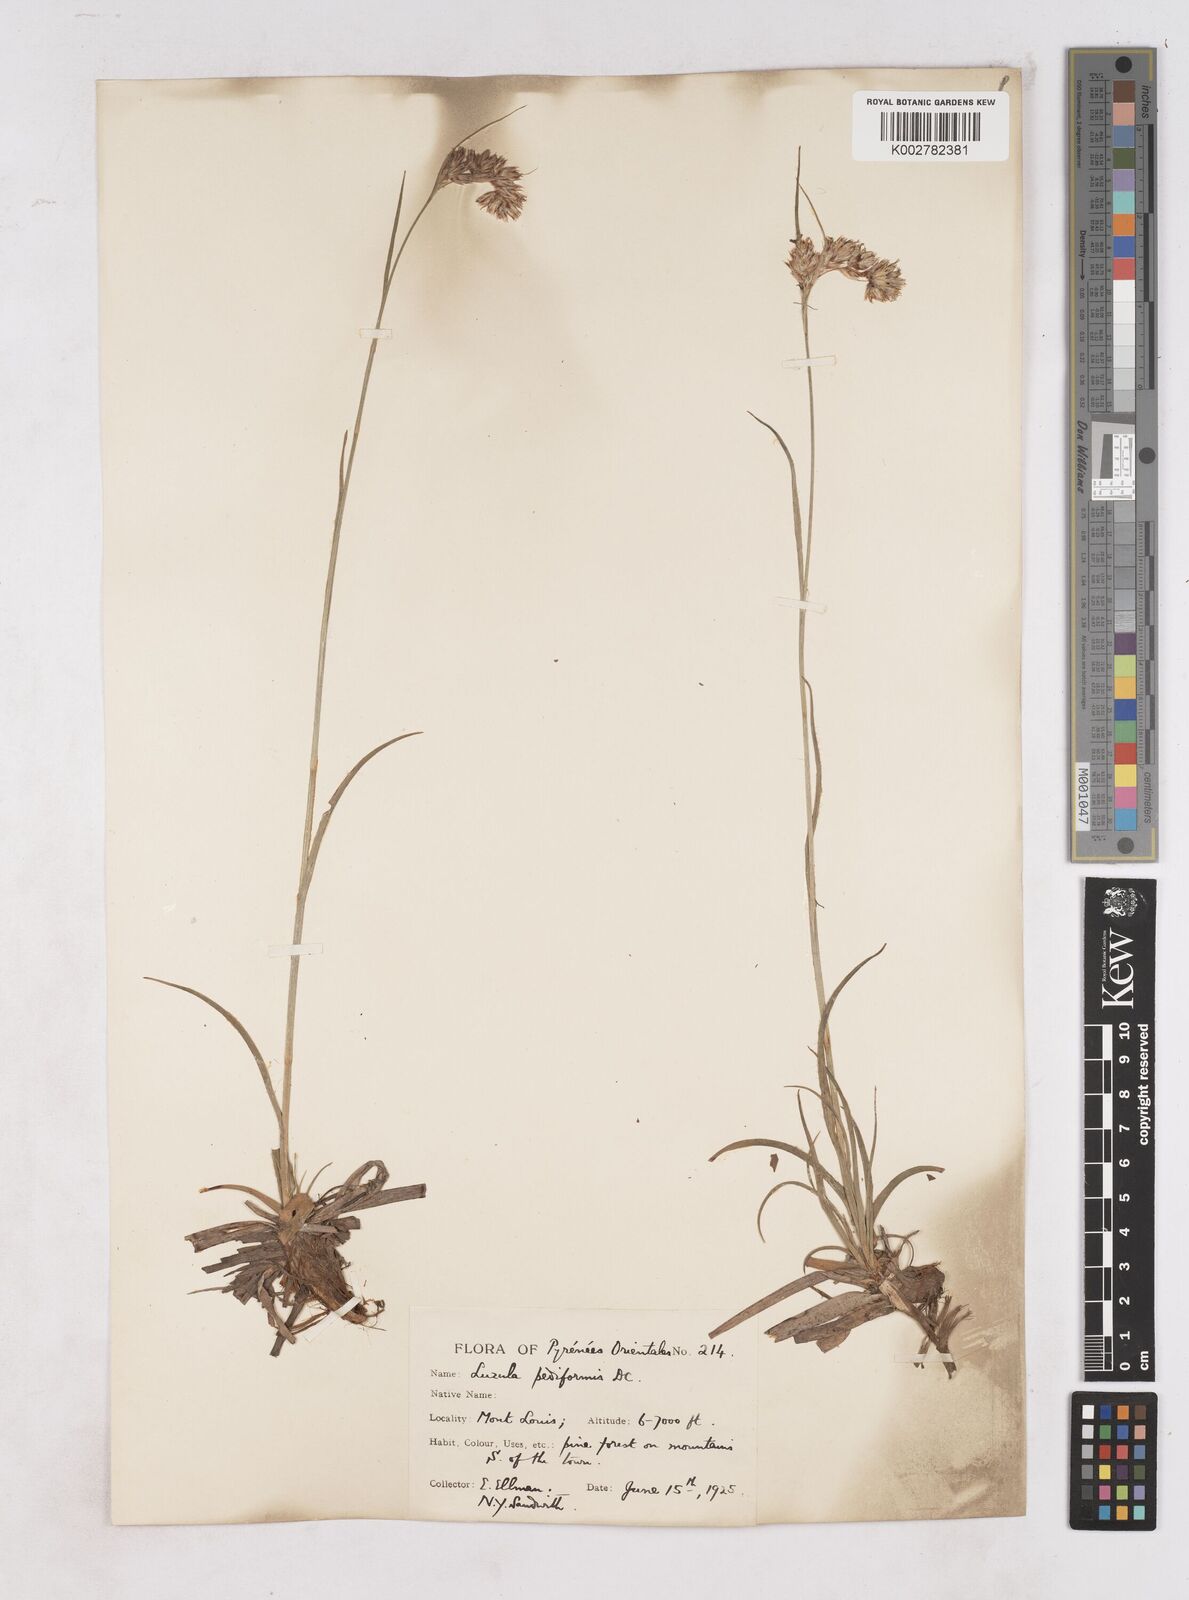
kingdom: Plantae
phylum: Tracheophyta
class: Liliopsida
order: Poales
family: Juncaceae
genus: Luzula
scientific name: Luzula pediformis
